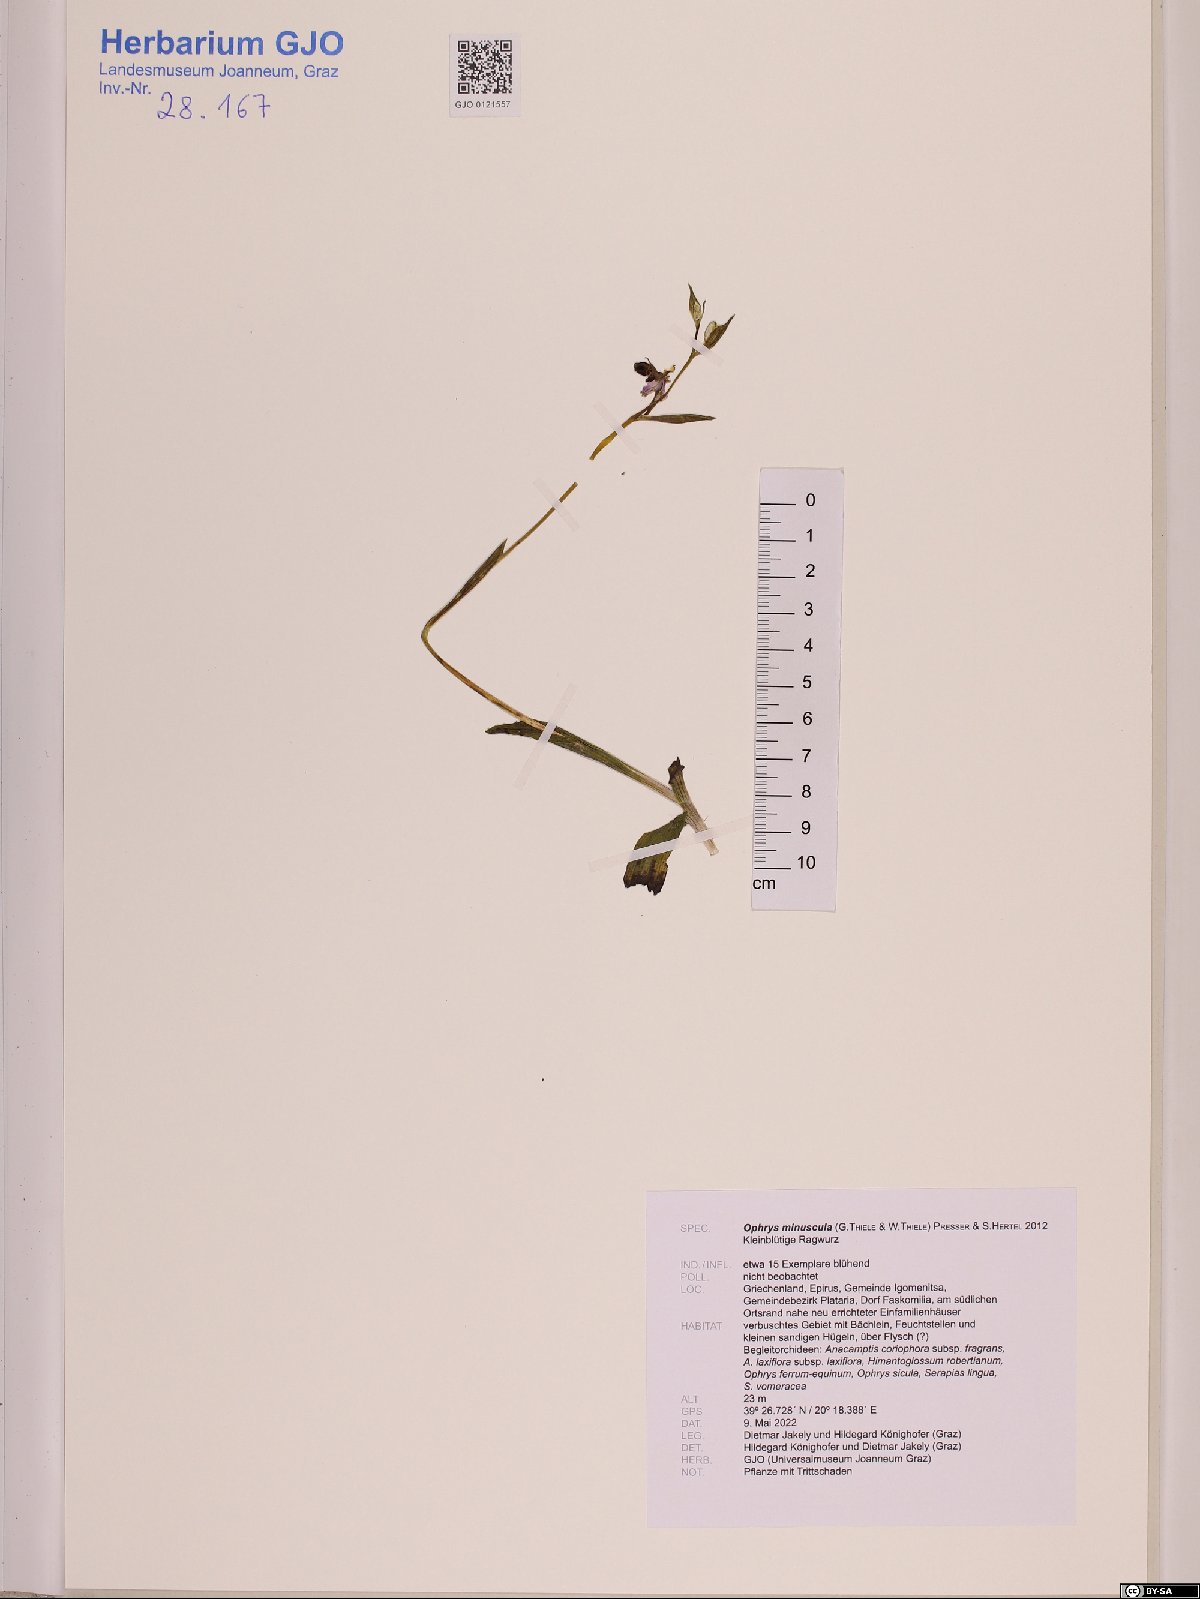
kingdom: Plantae
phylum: Tracheophyta
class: Liliopsida
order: Asparagales
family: Orchidaceae
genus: Ophrys
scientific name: Ophrys scolopax
